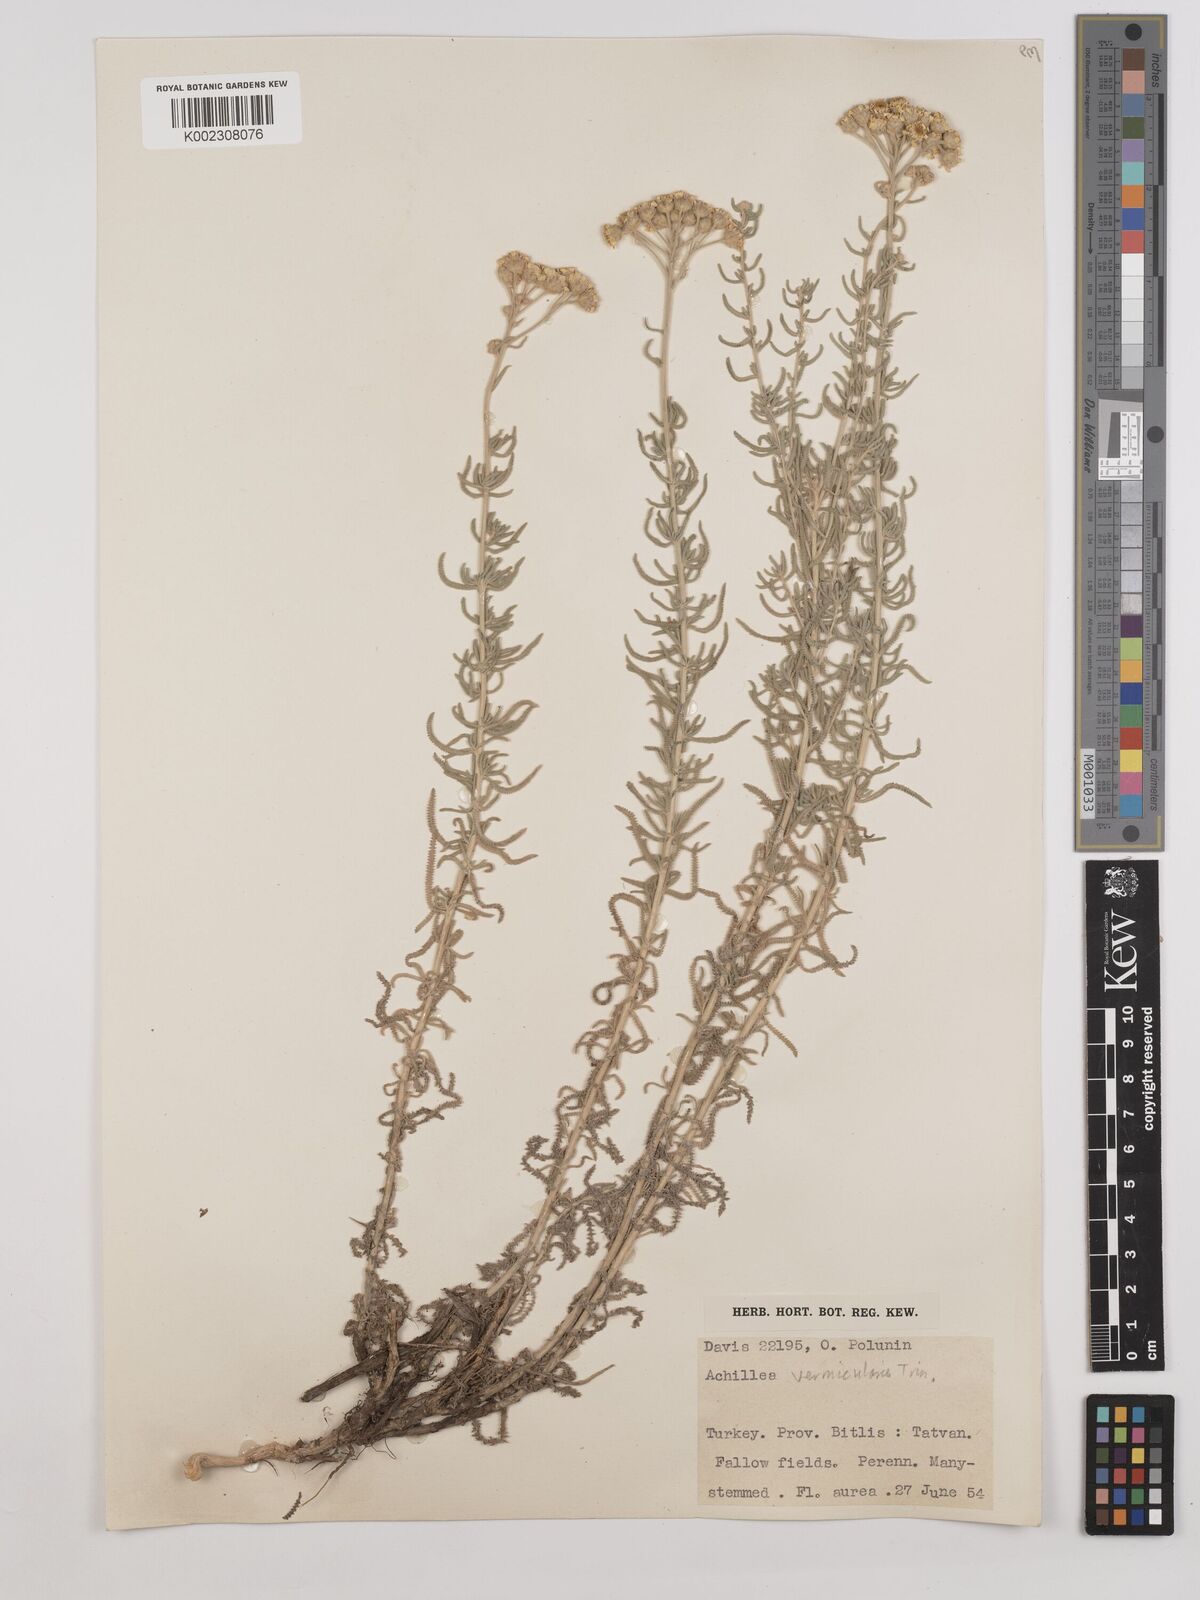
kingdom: Plantae
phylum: Tracheophyta
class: Magnoliopsida
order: Asterales
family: Asteraceae
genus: Achillea
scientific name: Achillea vermicularis
